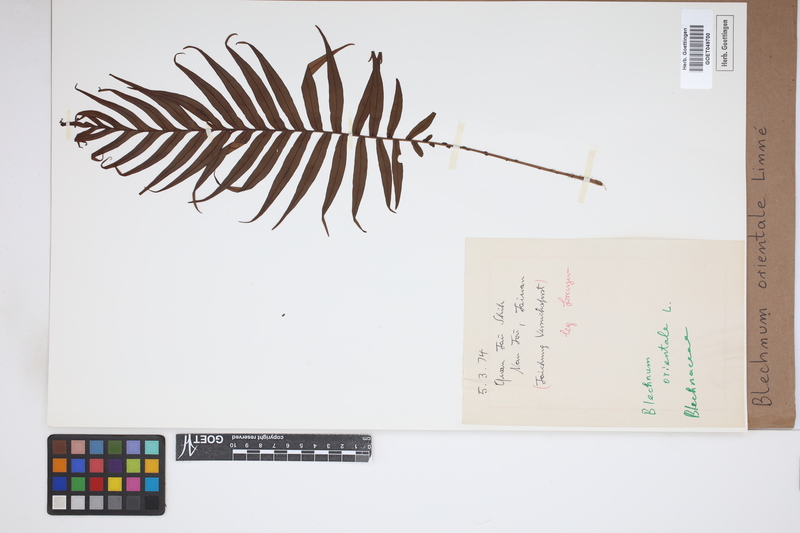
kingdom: Plantae
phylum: Tracheophyta
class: Polypodiopsida
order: Polypodiales
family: Blechnaceae
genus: Blechnopsis
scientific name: Blechnopsis orientalis
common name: Oriental blechnum
